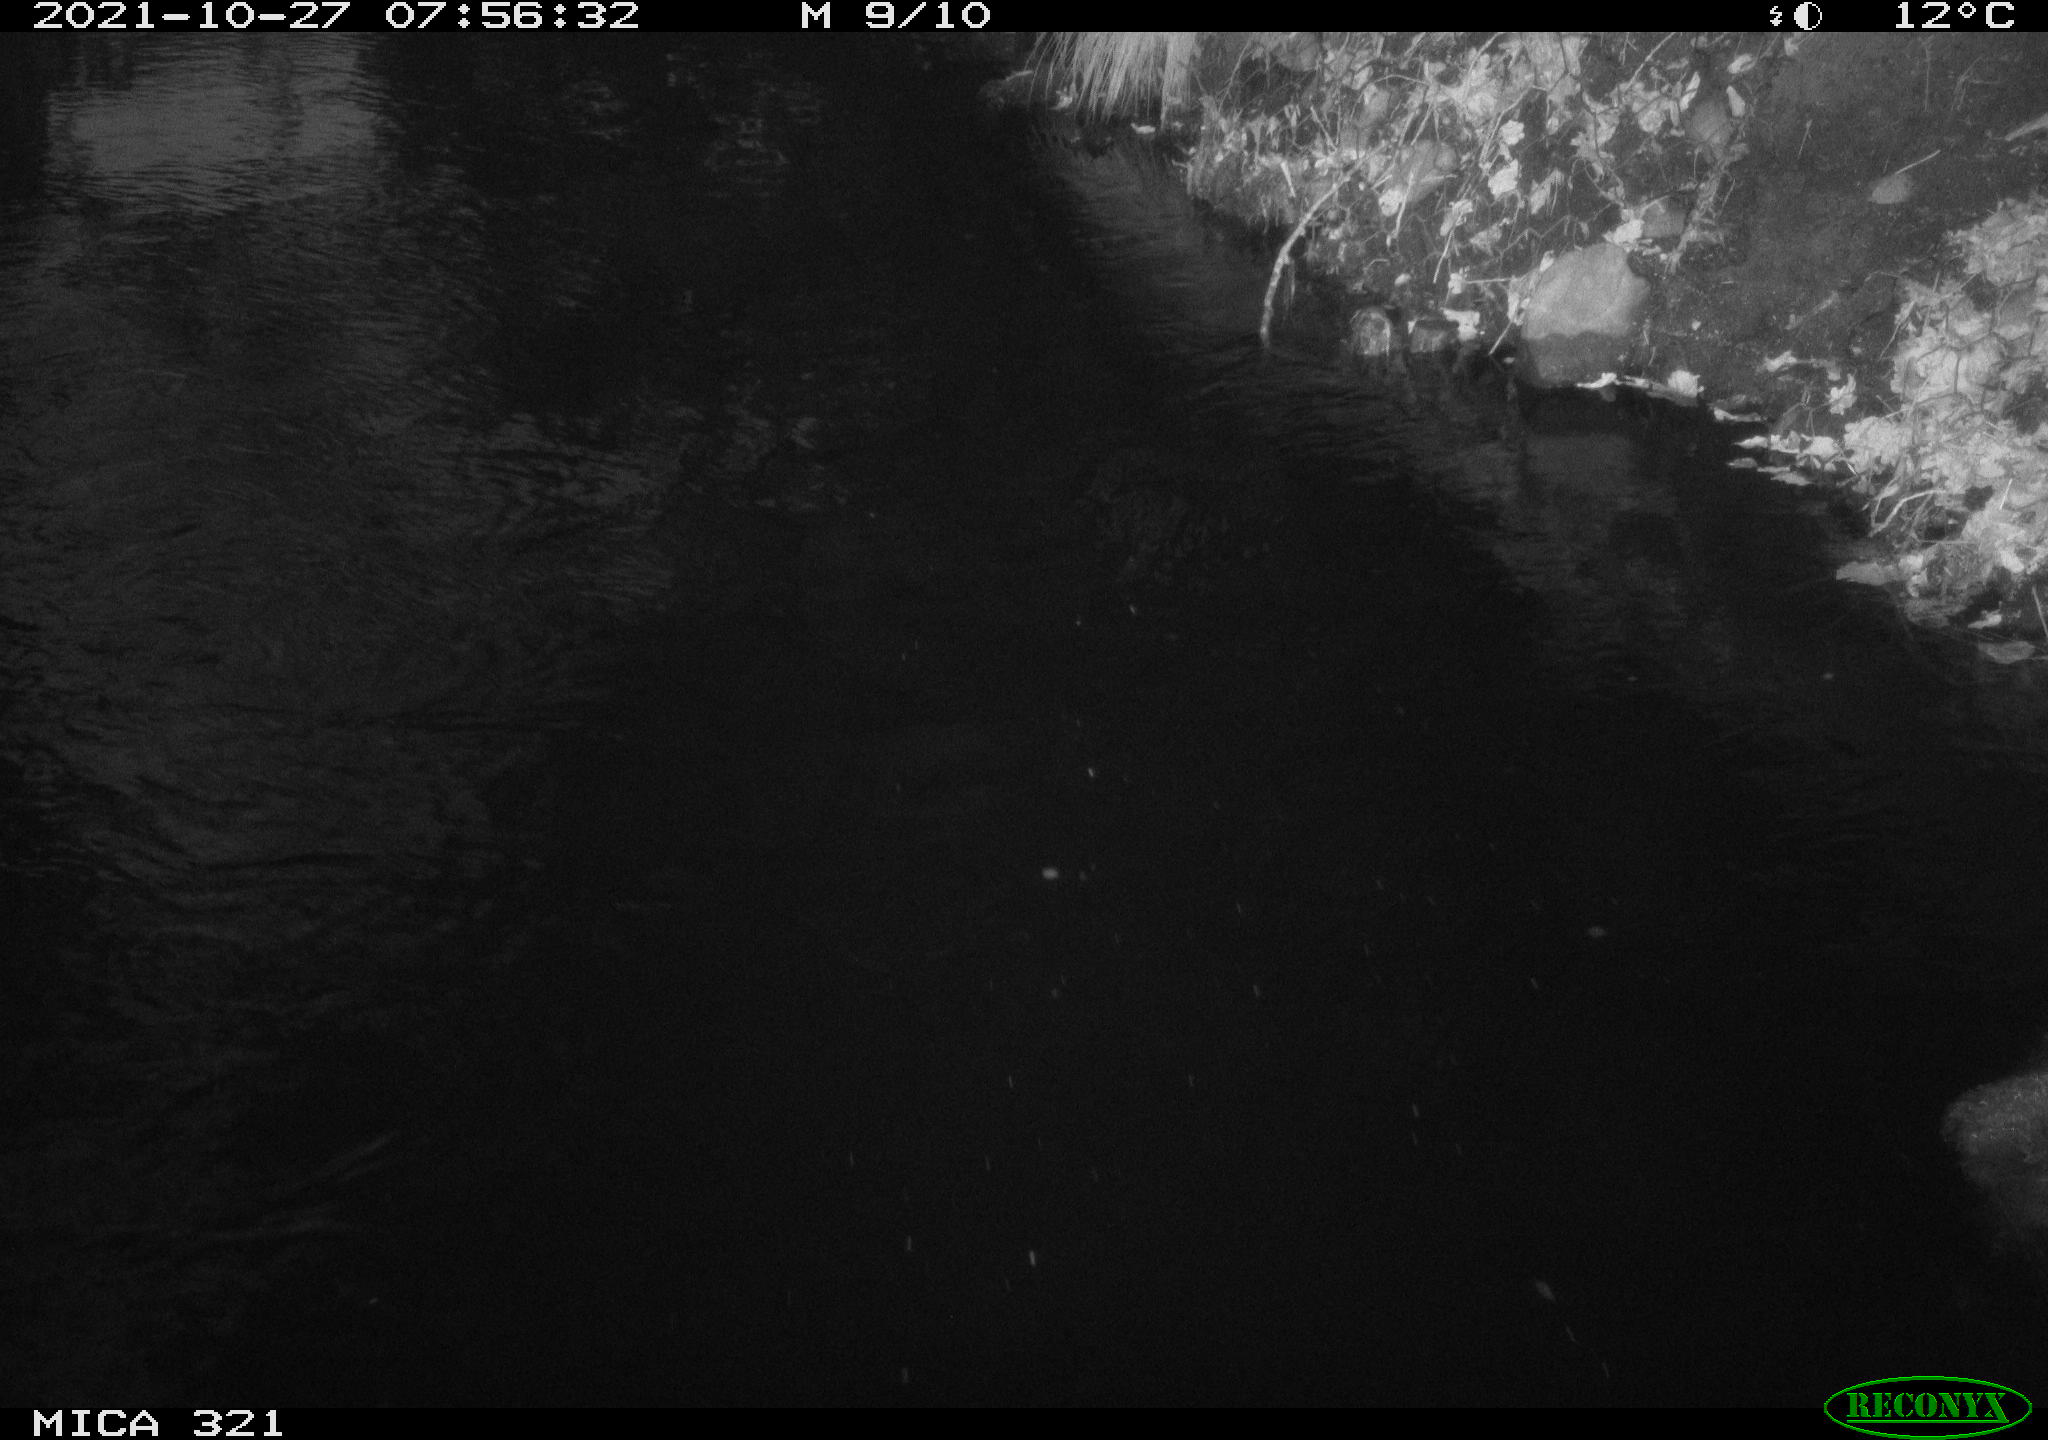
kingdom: Animalia
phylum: Chordata
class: Aves
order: Anseriformes
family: Anatidae
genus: Anas
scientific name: Anas platyrhynchos
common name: Mallard
